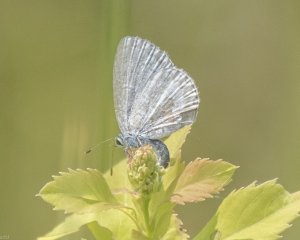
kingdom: Animalia
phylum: Arthropoda
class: Insecta
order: Lepidoptera
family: Lycaenidae
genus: Celastrina
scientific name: Celastrina
